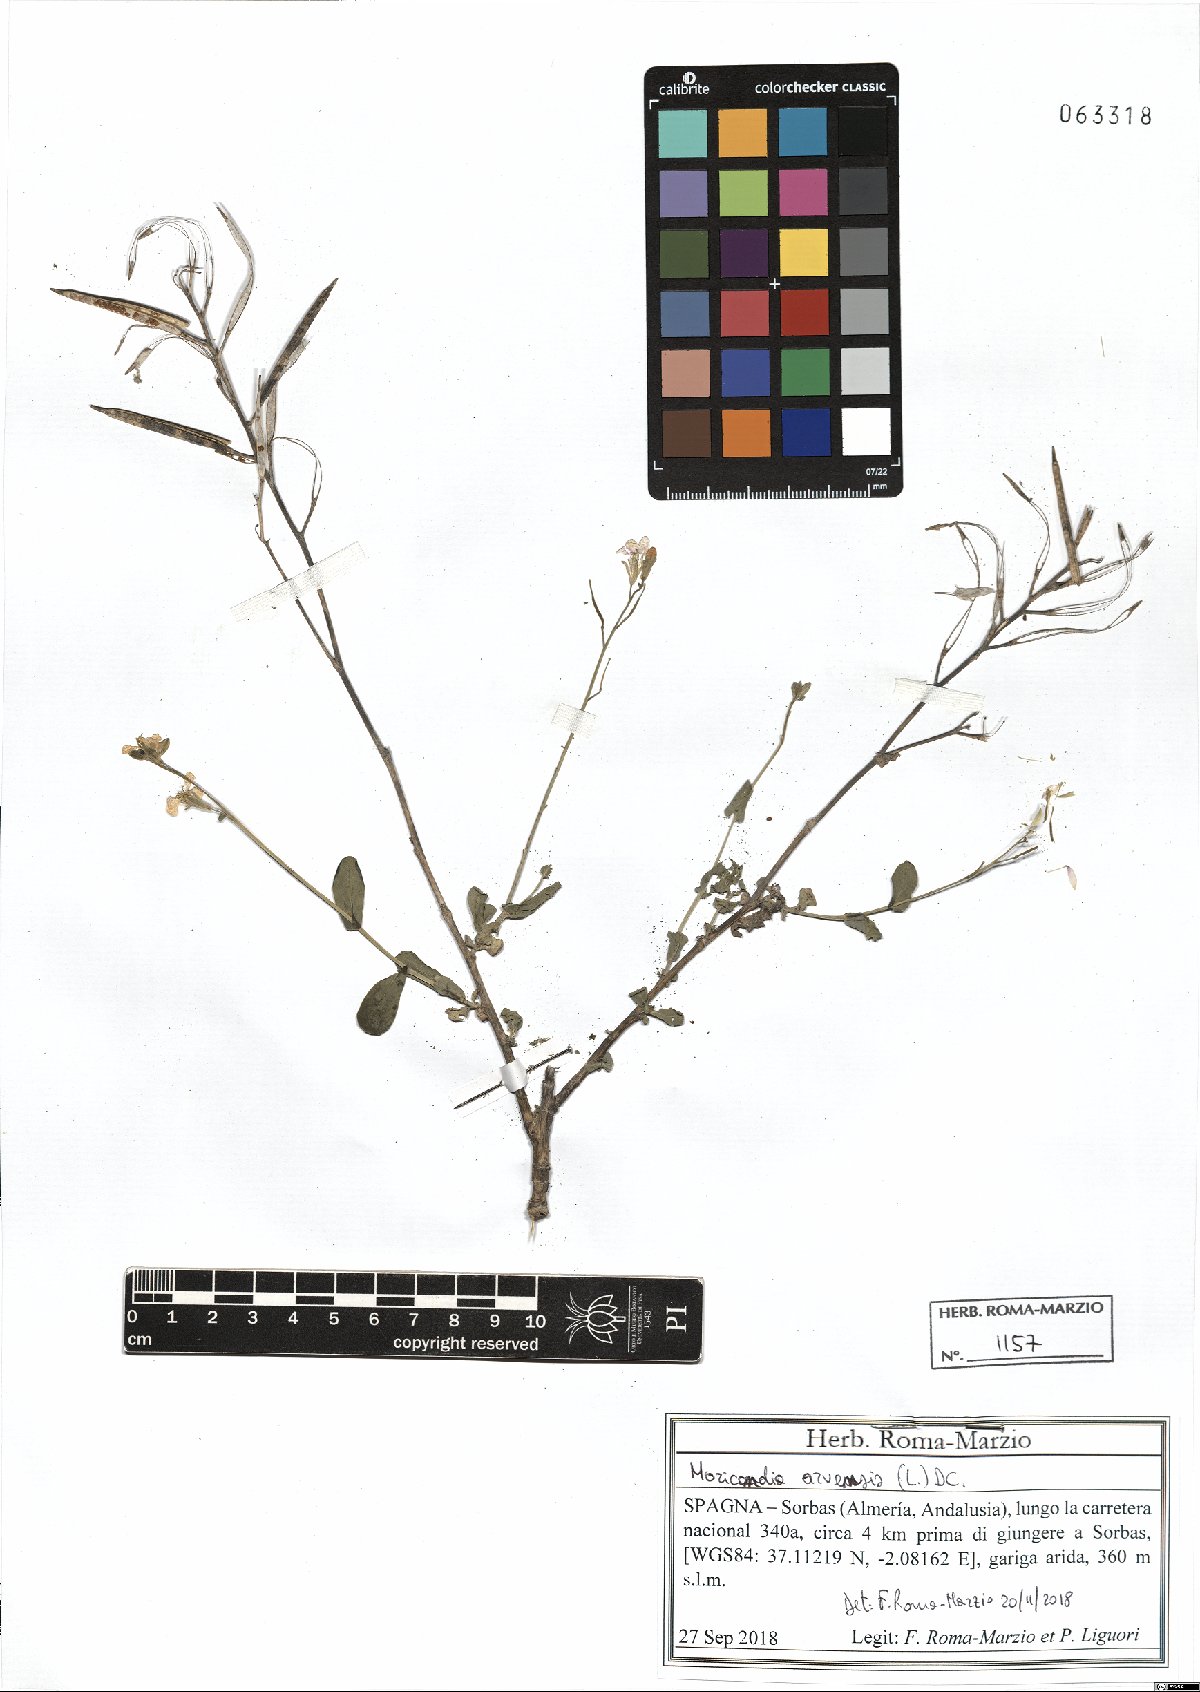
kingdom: Plantae
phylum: Tracheophyta
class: Magnoliopsida
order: Brassicales
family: Brassicaceae
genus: Moricandia
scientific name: Moricandia arvensis
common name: Purple mistress
